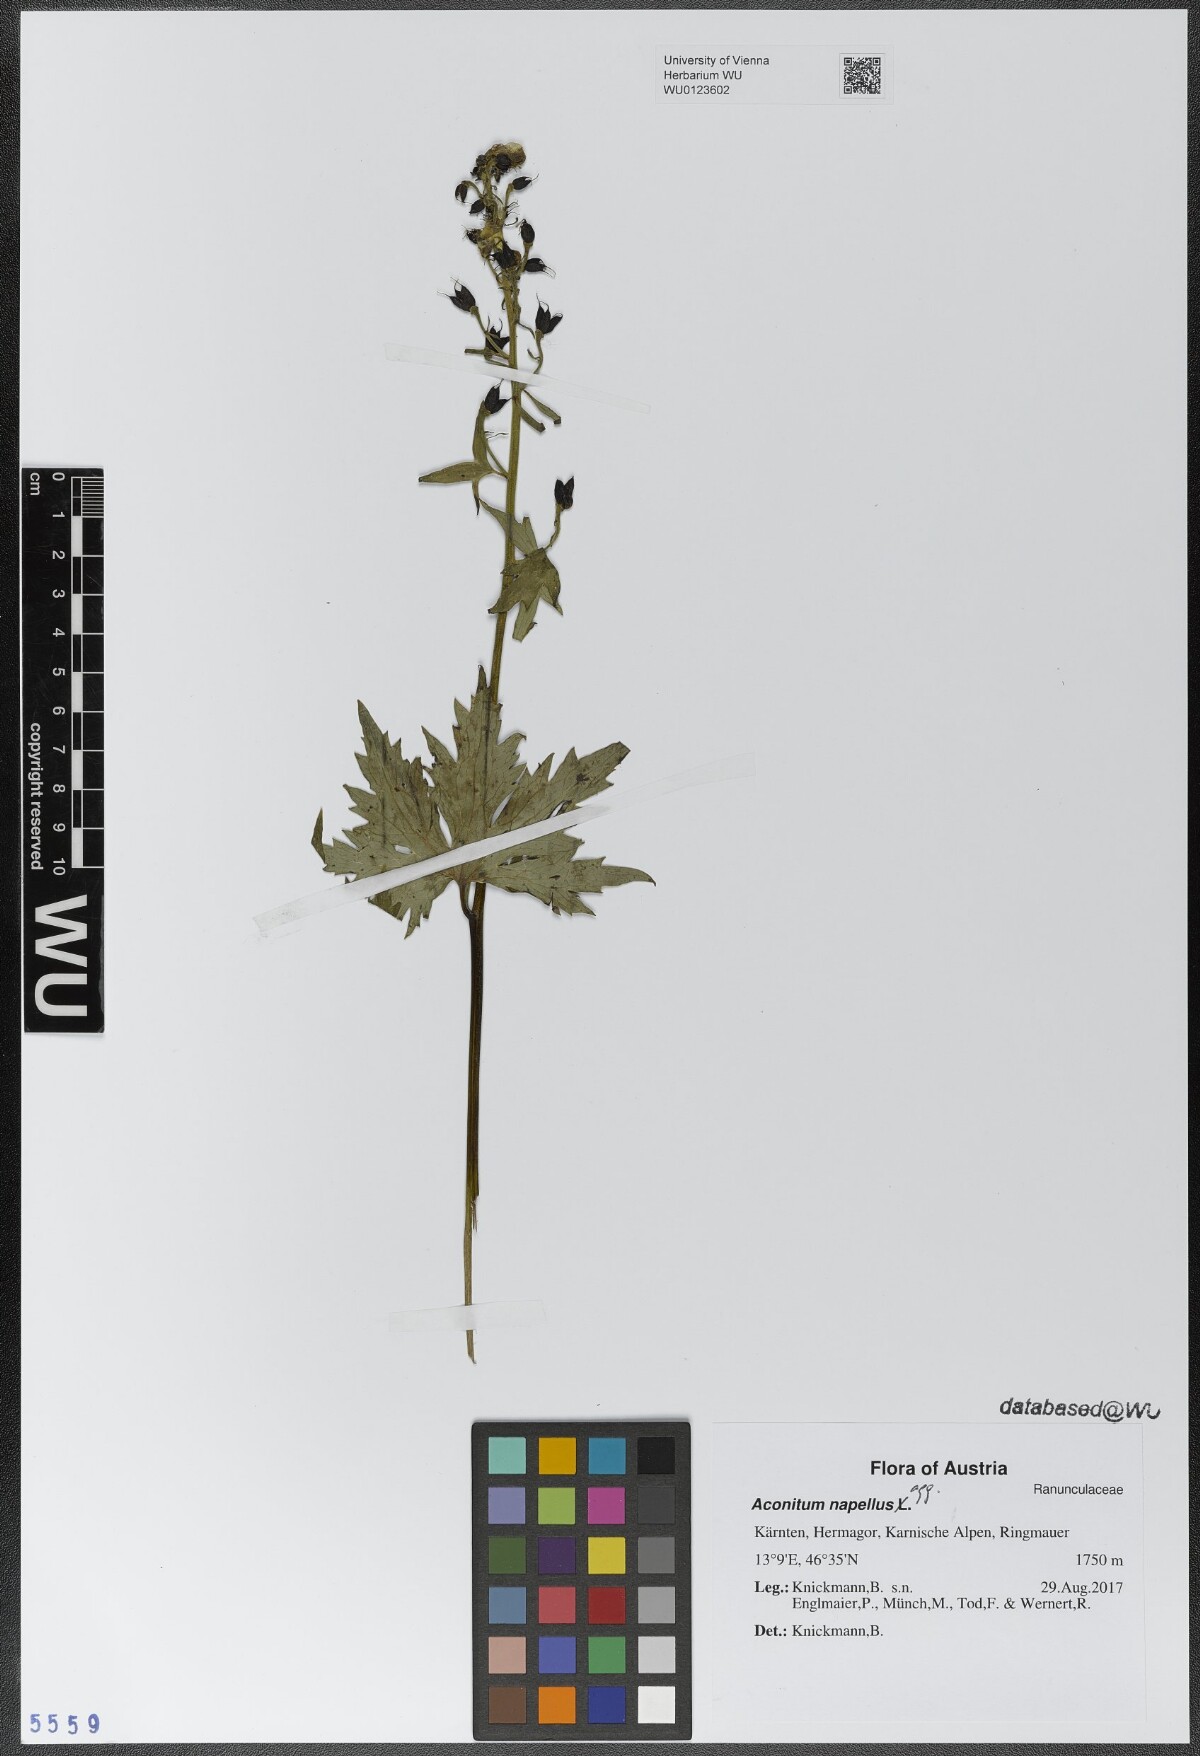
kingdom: Plantae
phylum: Tracheophyta
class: Magnoliopsida
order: Ranunculales
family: Ranunculaceae
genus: Aconitum
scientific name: Aconitum napellus
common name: Garden monkshood
